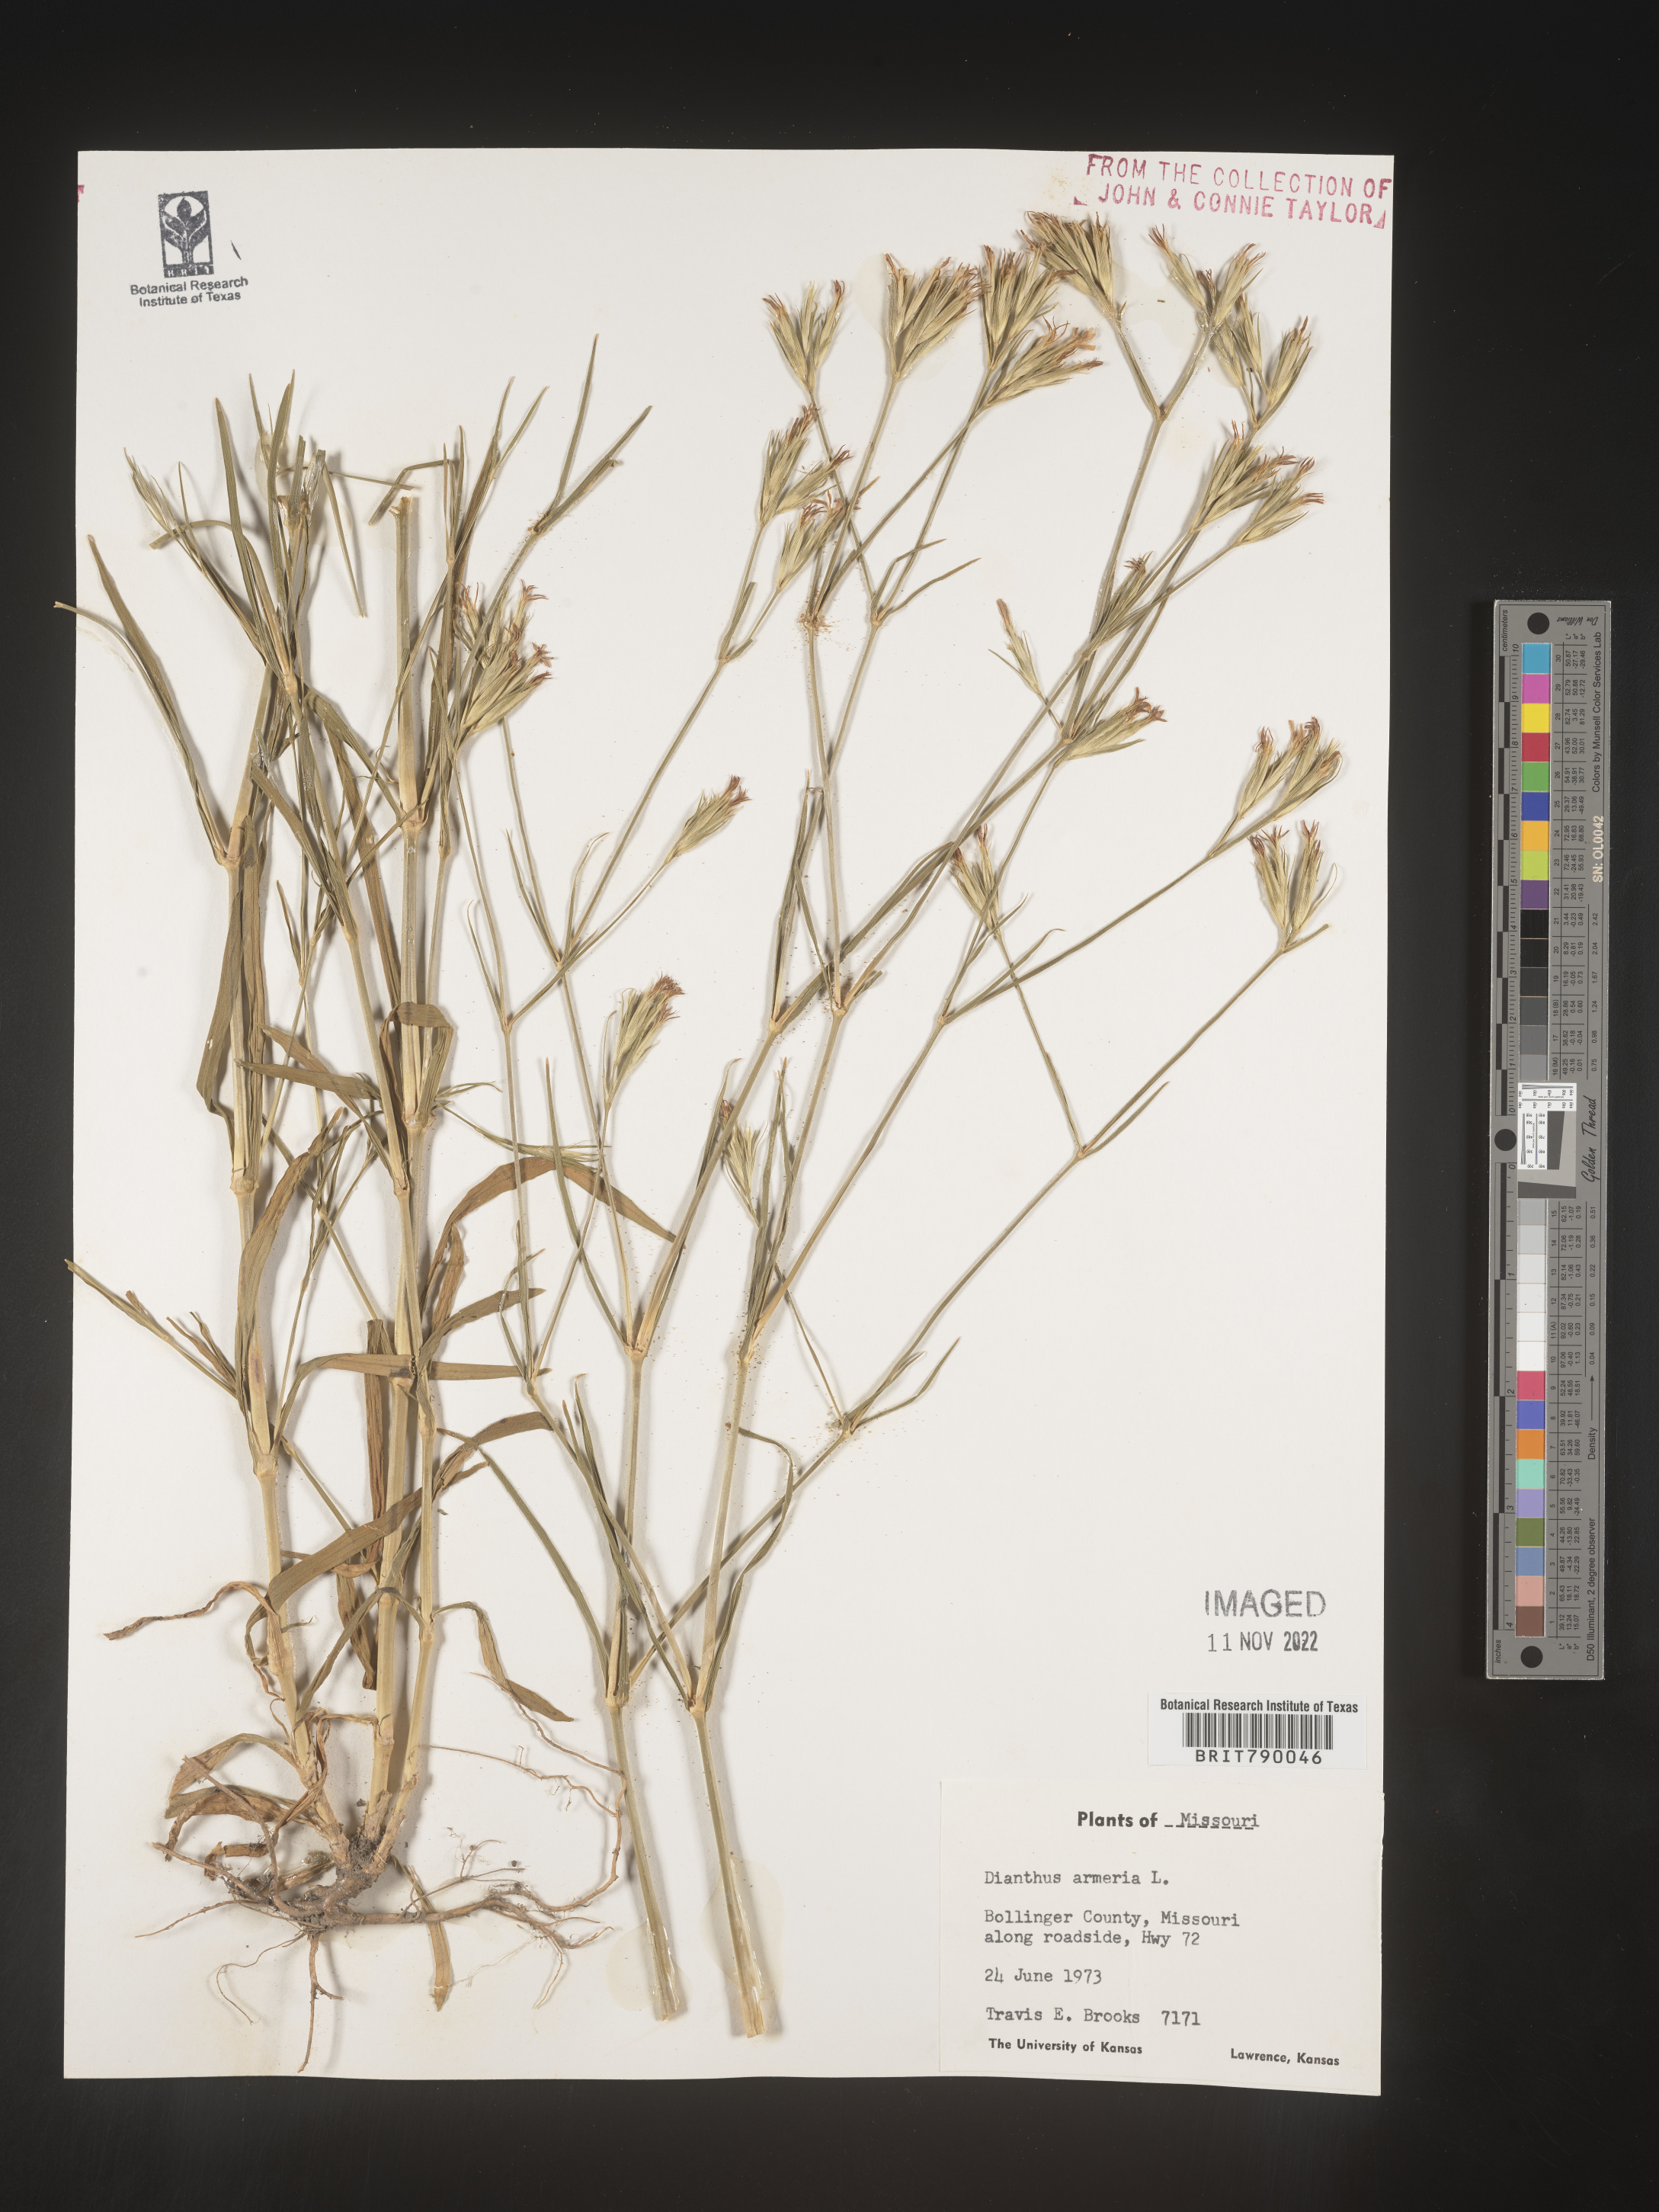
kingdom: Plantae
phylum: Tracheophyta
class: Magnoliopsida
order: Caryophyllales
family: Caryophyllaceae
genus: Dianthus
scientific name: Dianthus armeria
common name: Deptford pink
